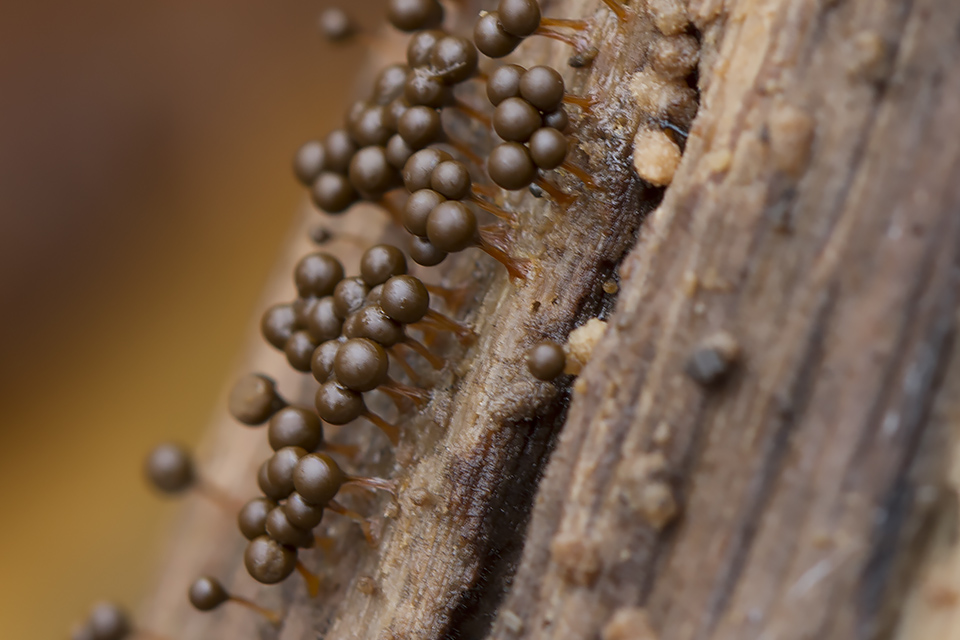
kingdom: Protozoa
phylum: Mycetozoa
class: Myxomycetes
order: Trichiales
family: Trichiaceae
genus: Trichia
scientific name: Trichia crateriformis
